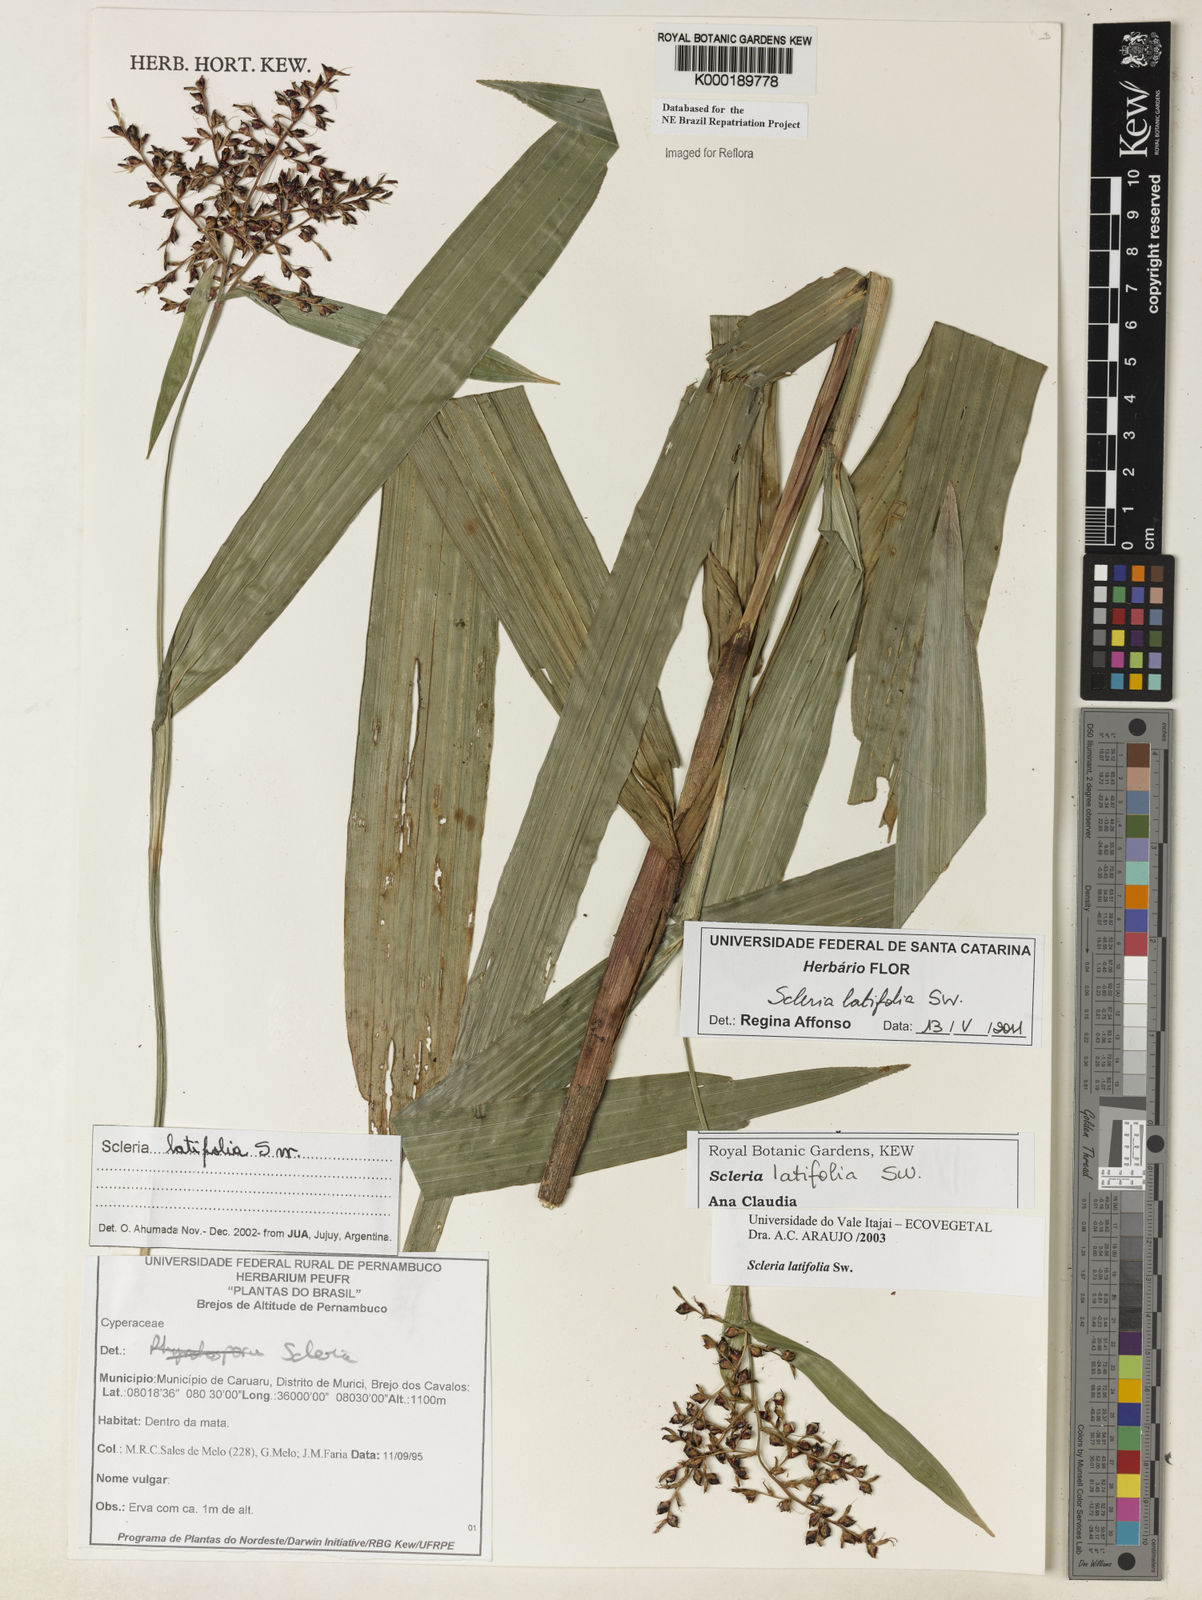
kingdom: Plantae
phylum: Tracheophyta
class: Liliopsida
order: Poales
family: Cyperaceae
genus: Scleria
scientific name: Scleria latifolia
